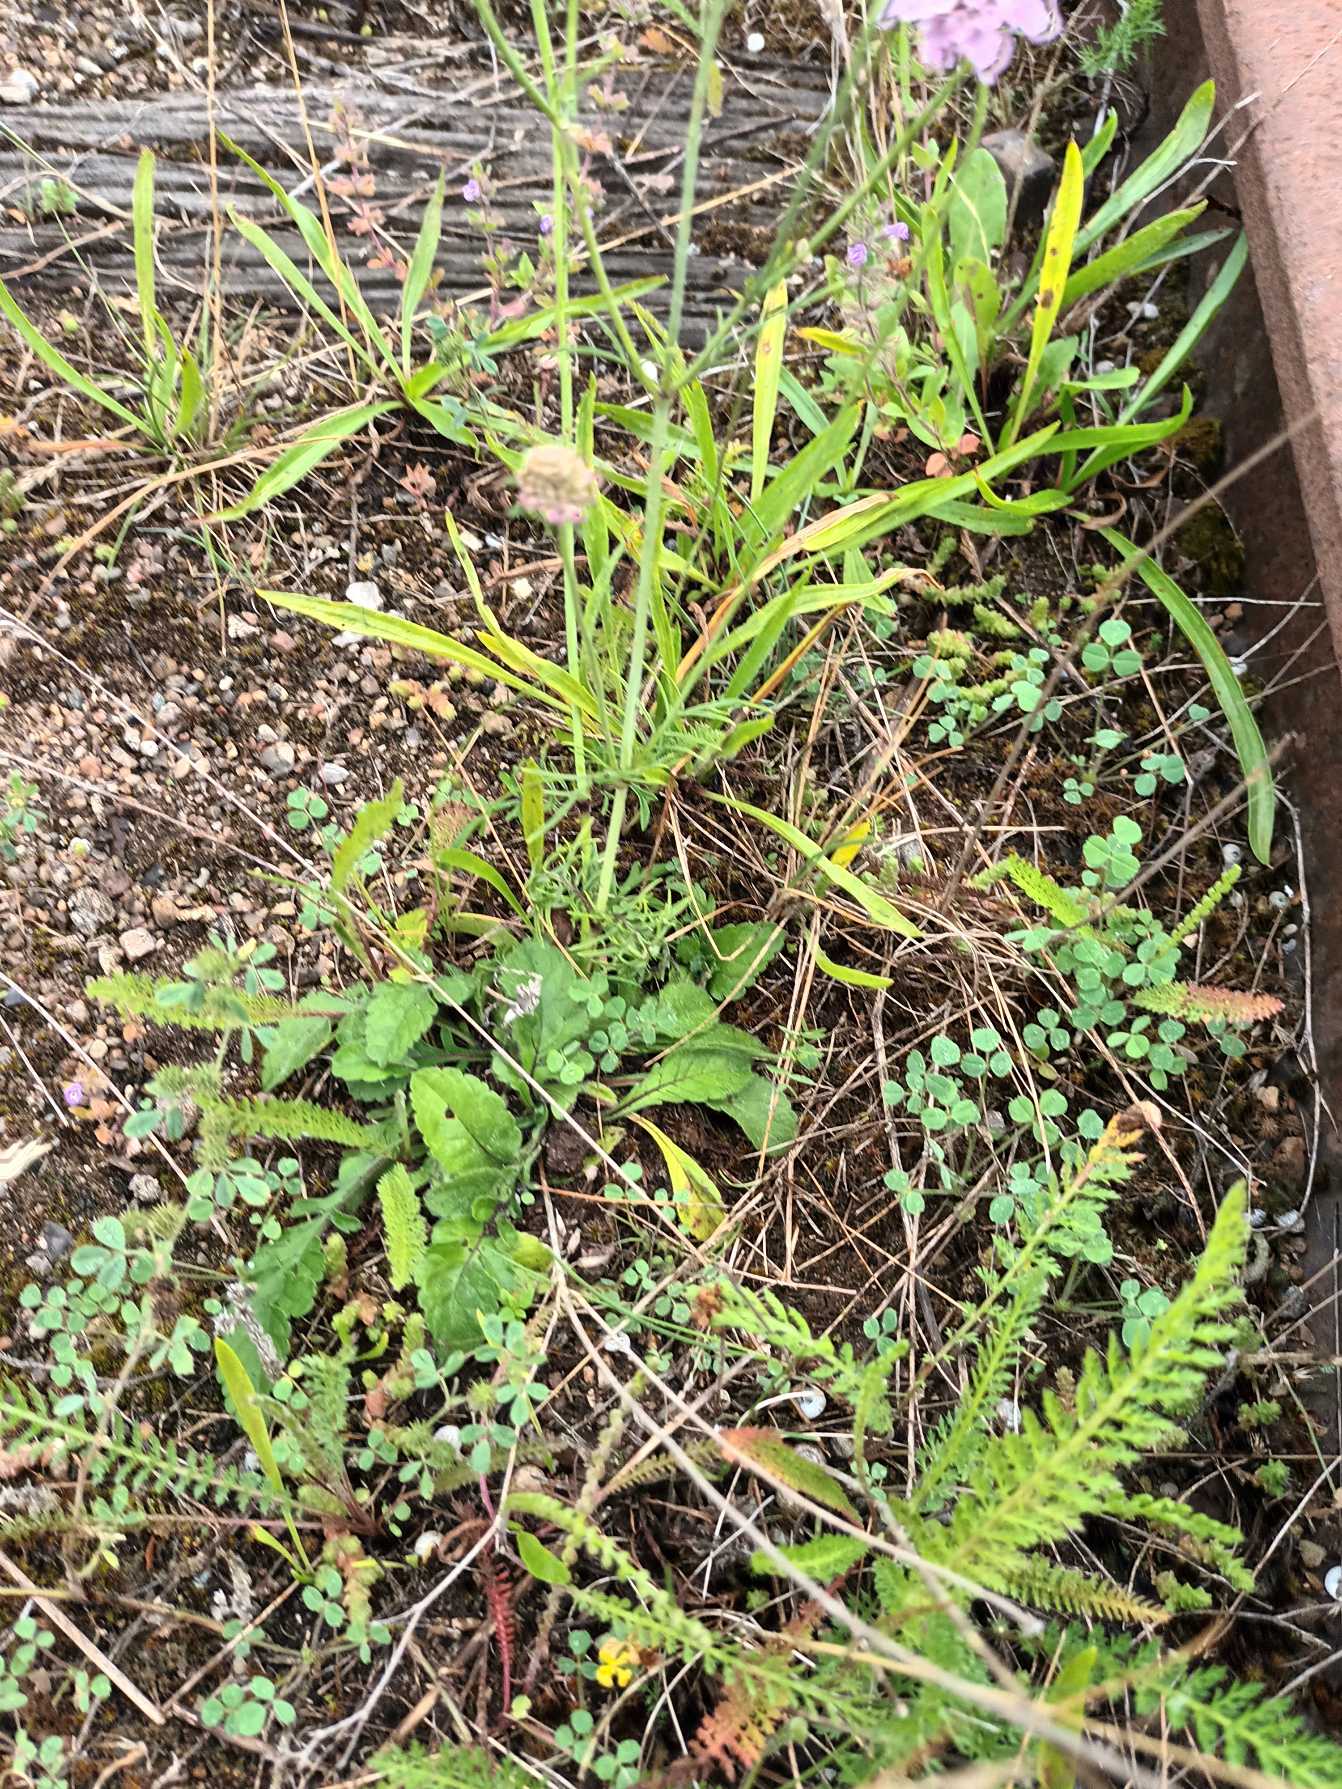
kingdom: Plantae
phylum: Tracheophyta
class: Magnoliopsida
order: Dipsacales
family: Caprifoliaceae
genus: Scabiosa
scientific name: Scabiosa columbaria
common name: Due-skabiose
